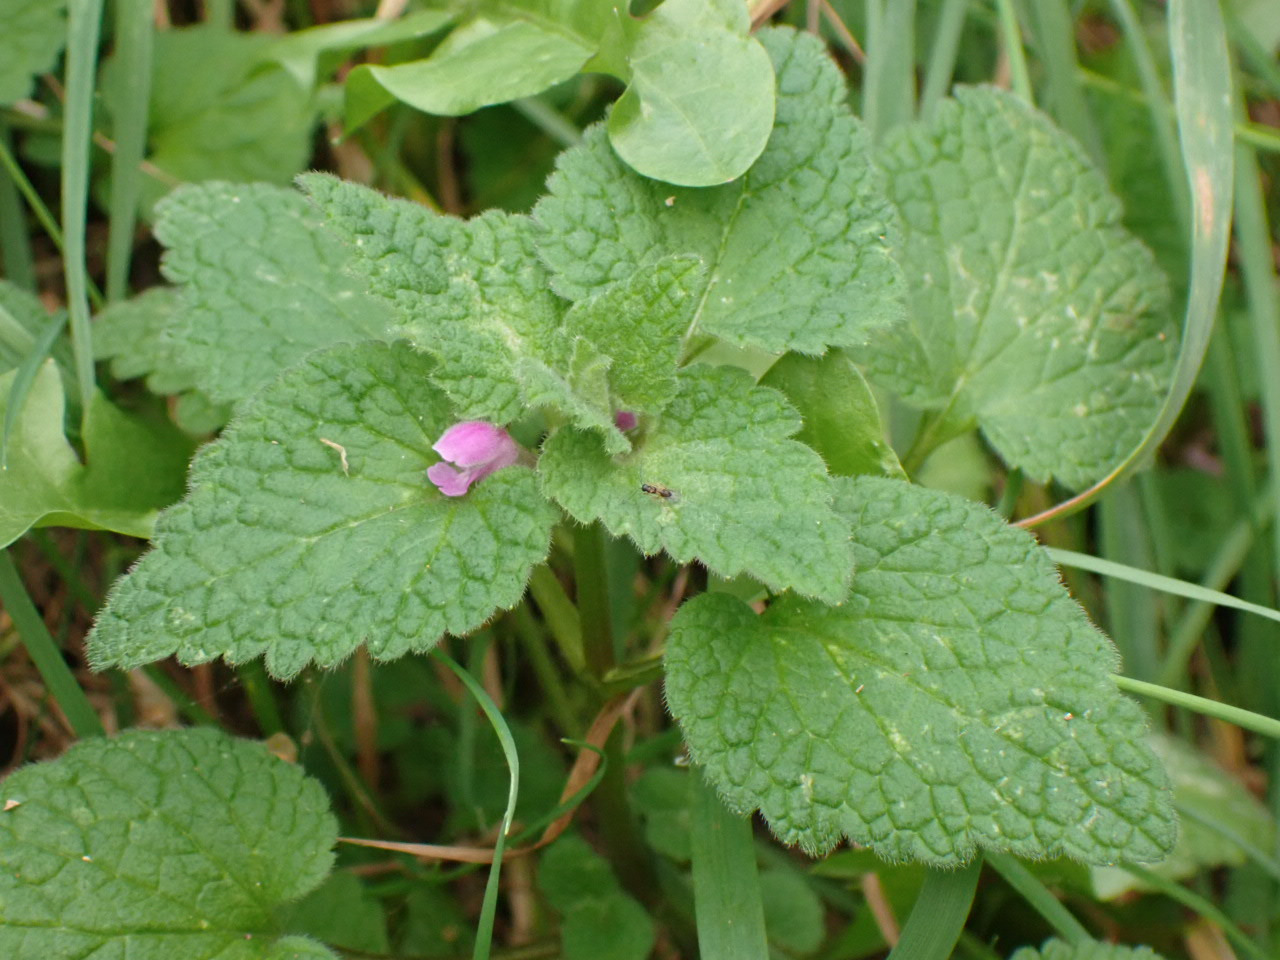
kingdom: Plantae
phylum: Tracheophyta
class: Magnoliopsida
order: Lamiales
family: Lamiaceae
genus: Lamium
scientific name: Lamium purpureum
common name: Rød tvetand
